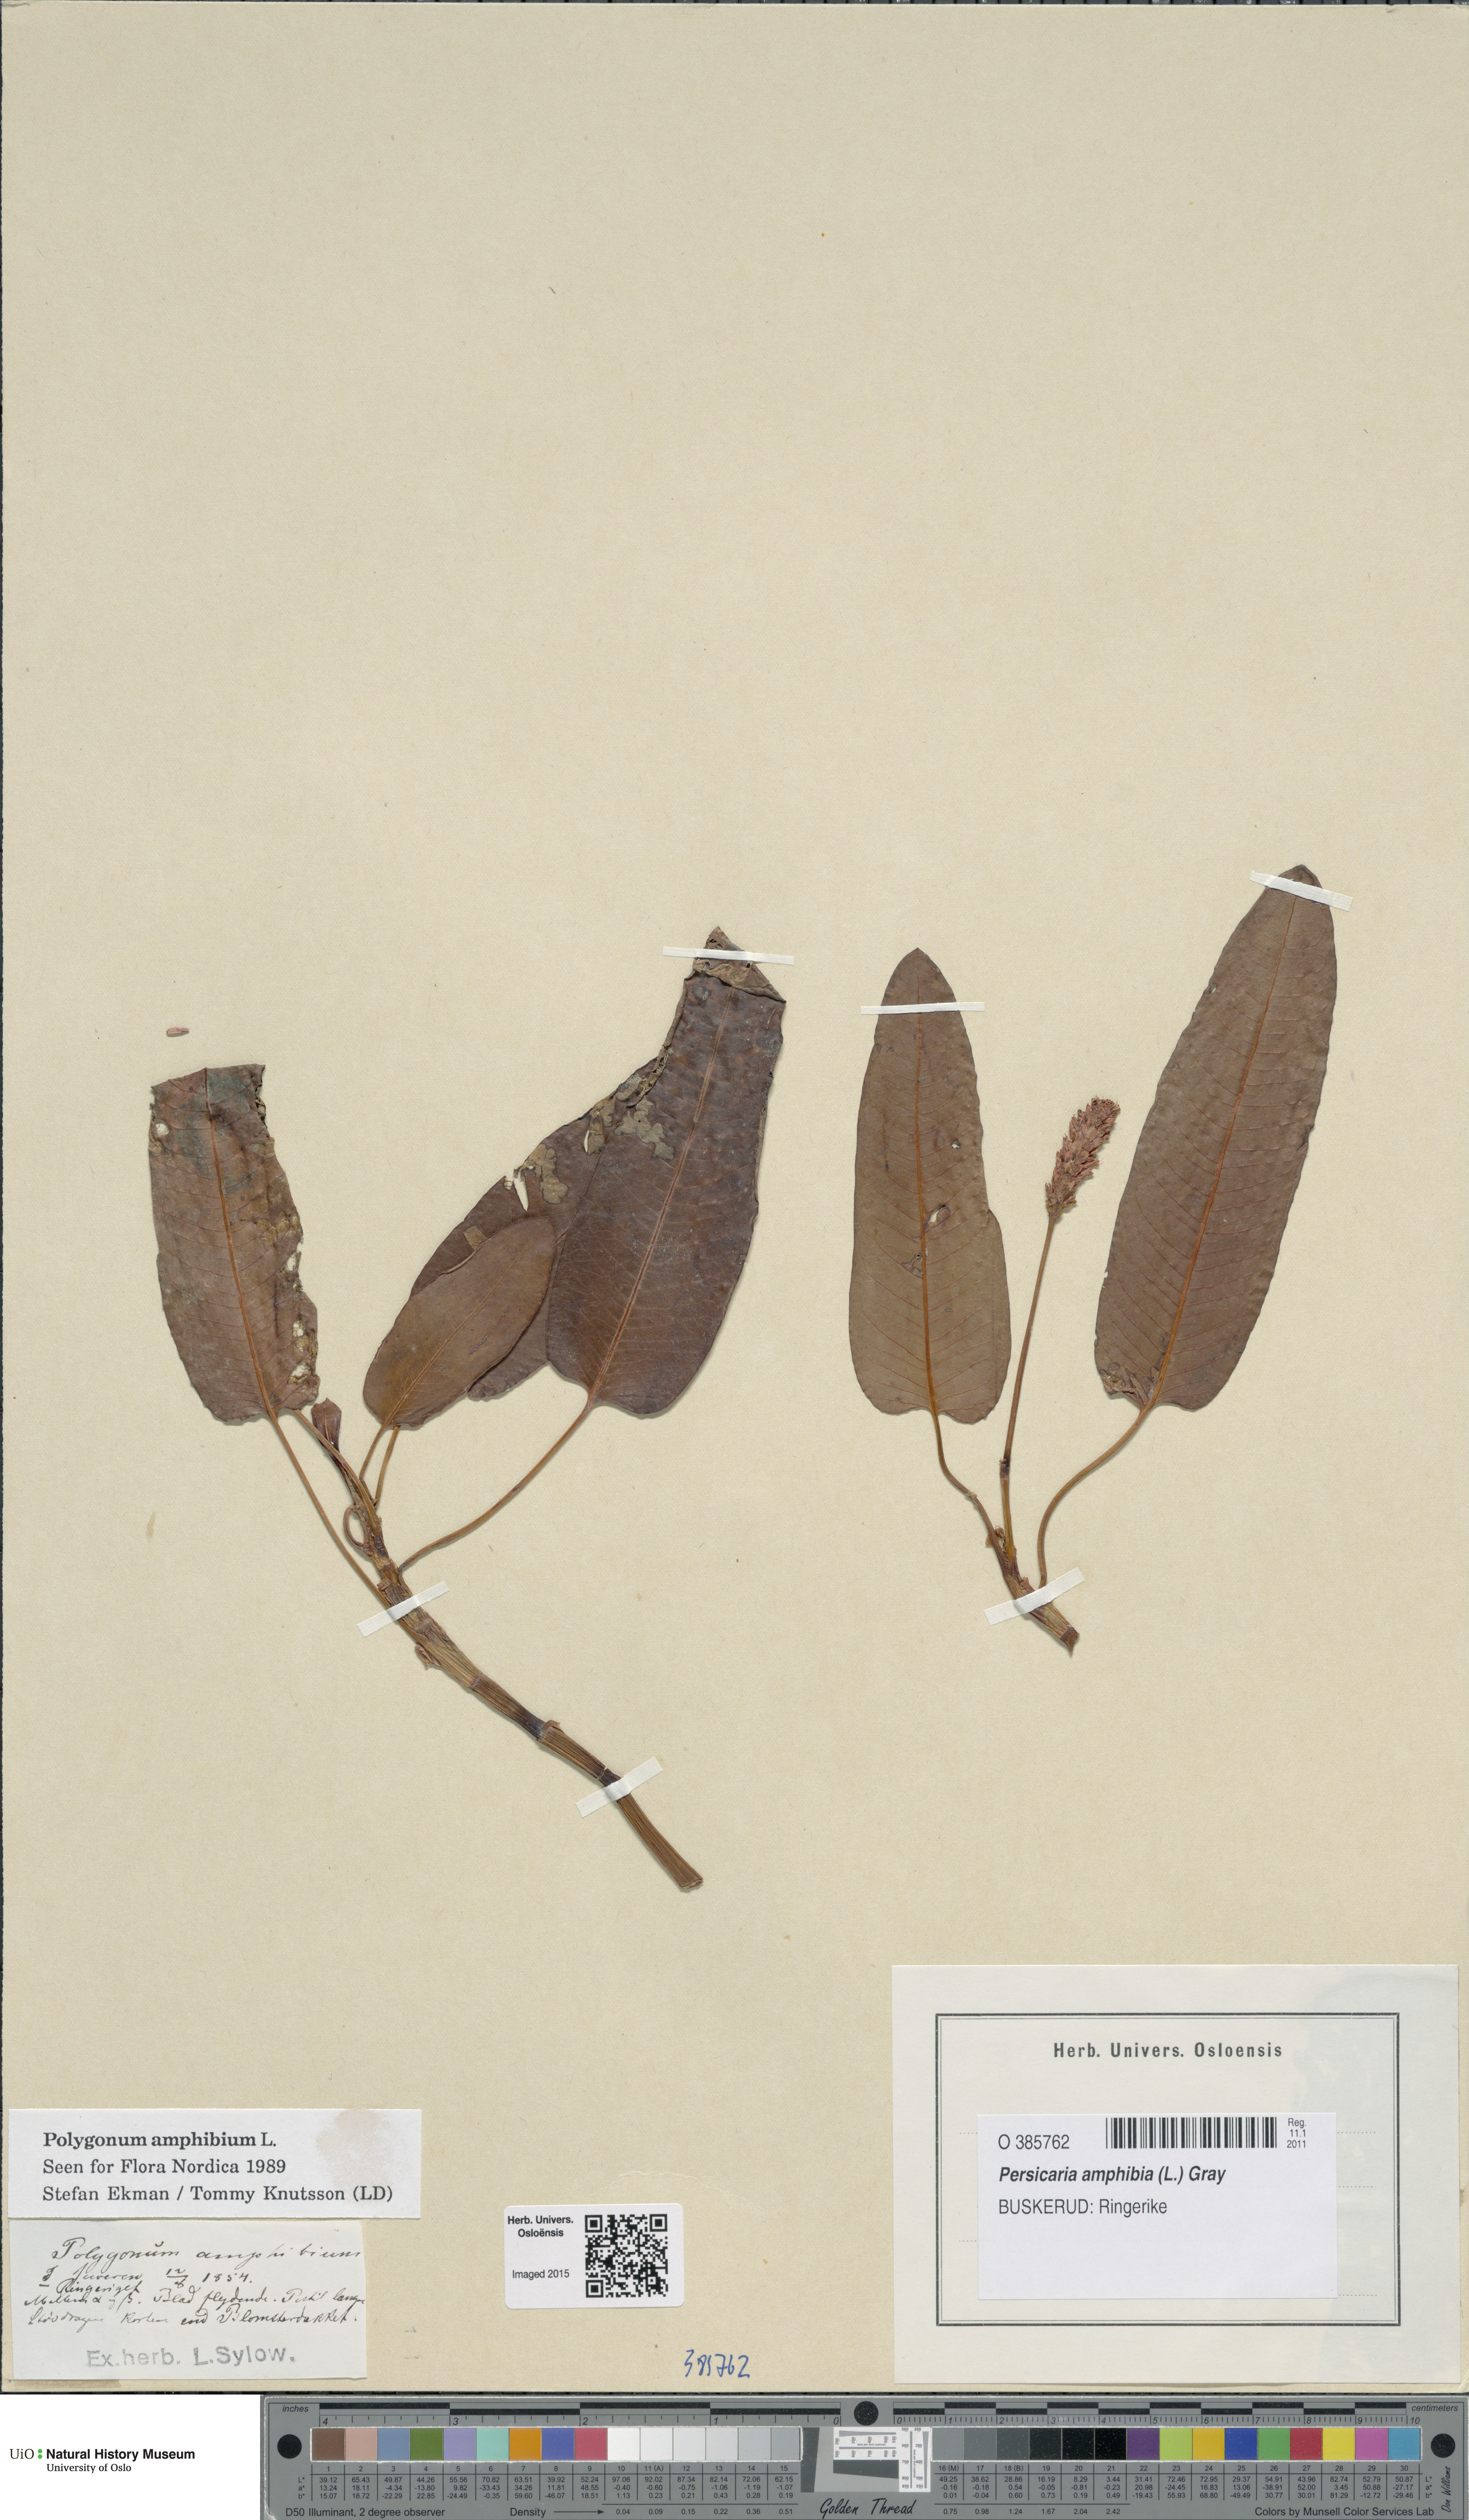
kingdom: Plantae
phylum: Tracheophyta
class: Magnoliopsida
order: Caryophyllales
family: Polygonaceae
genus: Persicaria
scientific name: Persicaria amphibia
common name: Amphibious bistort
